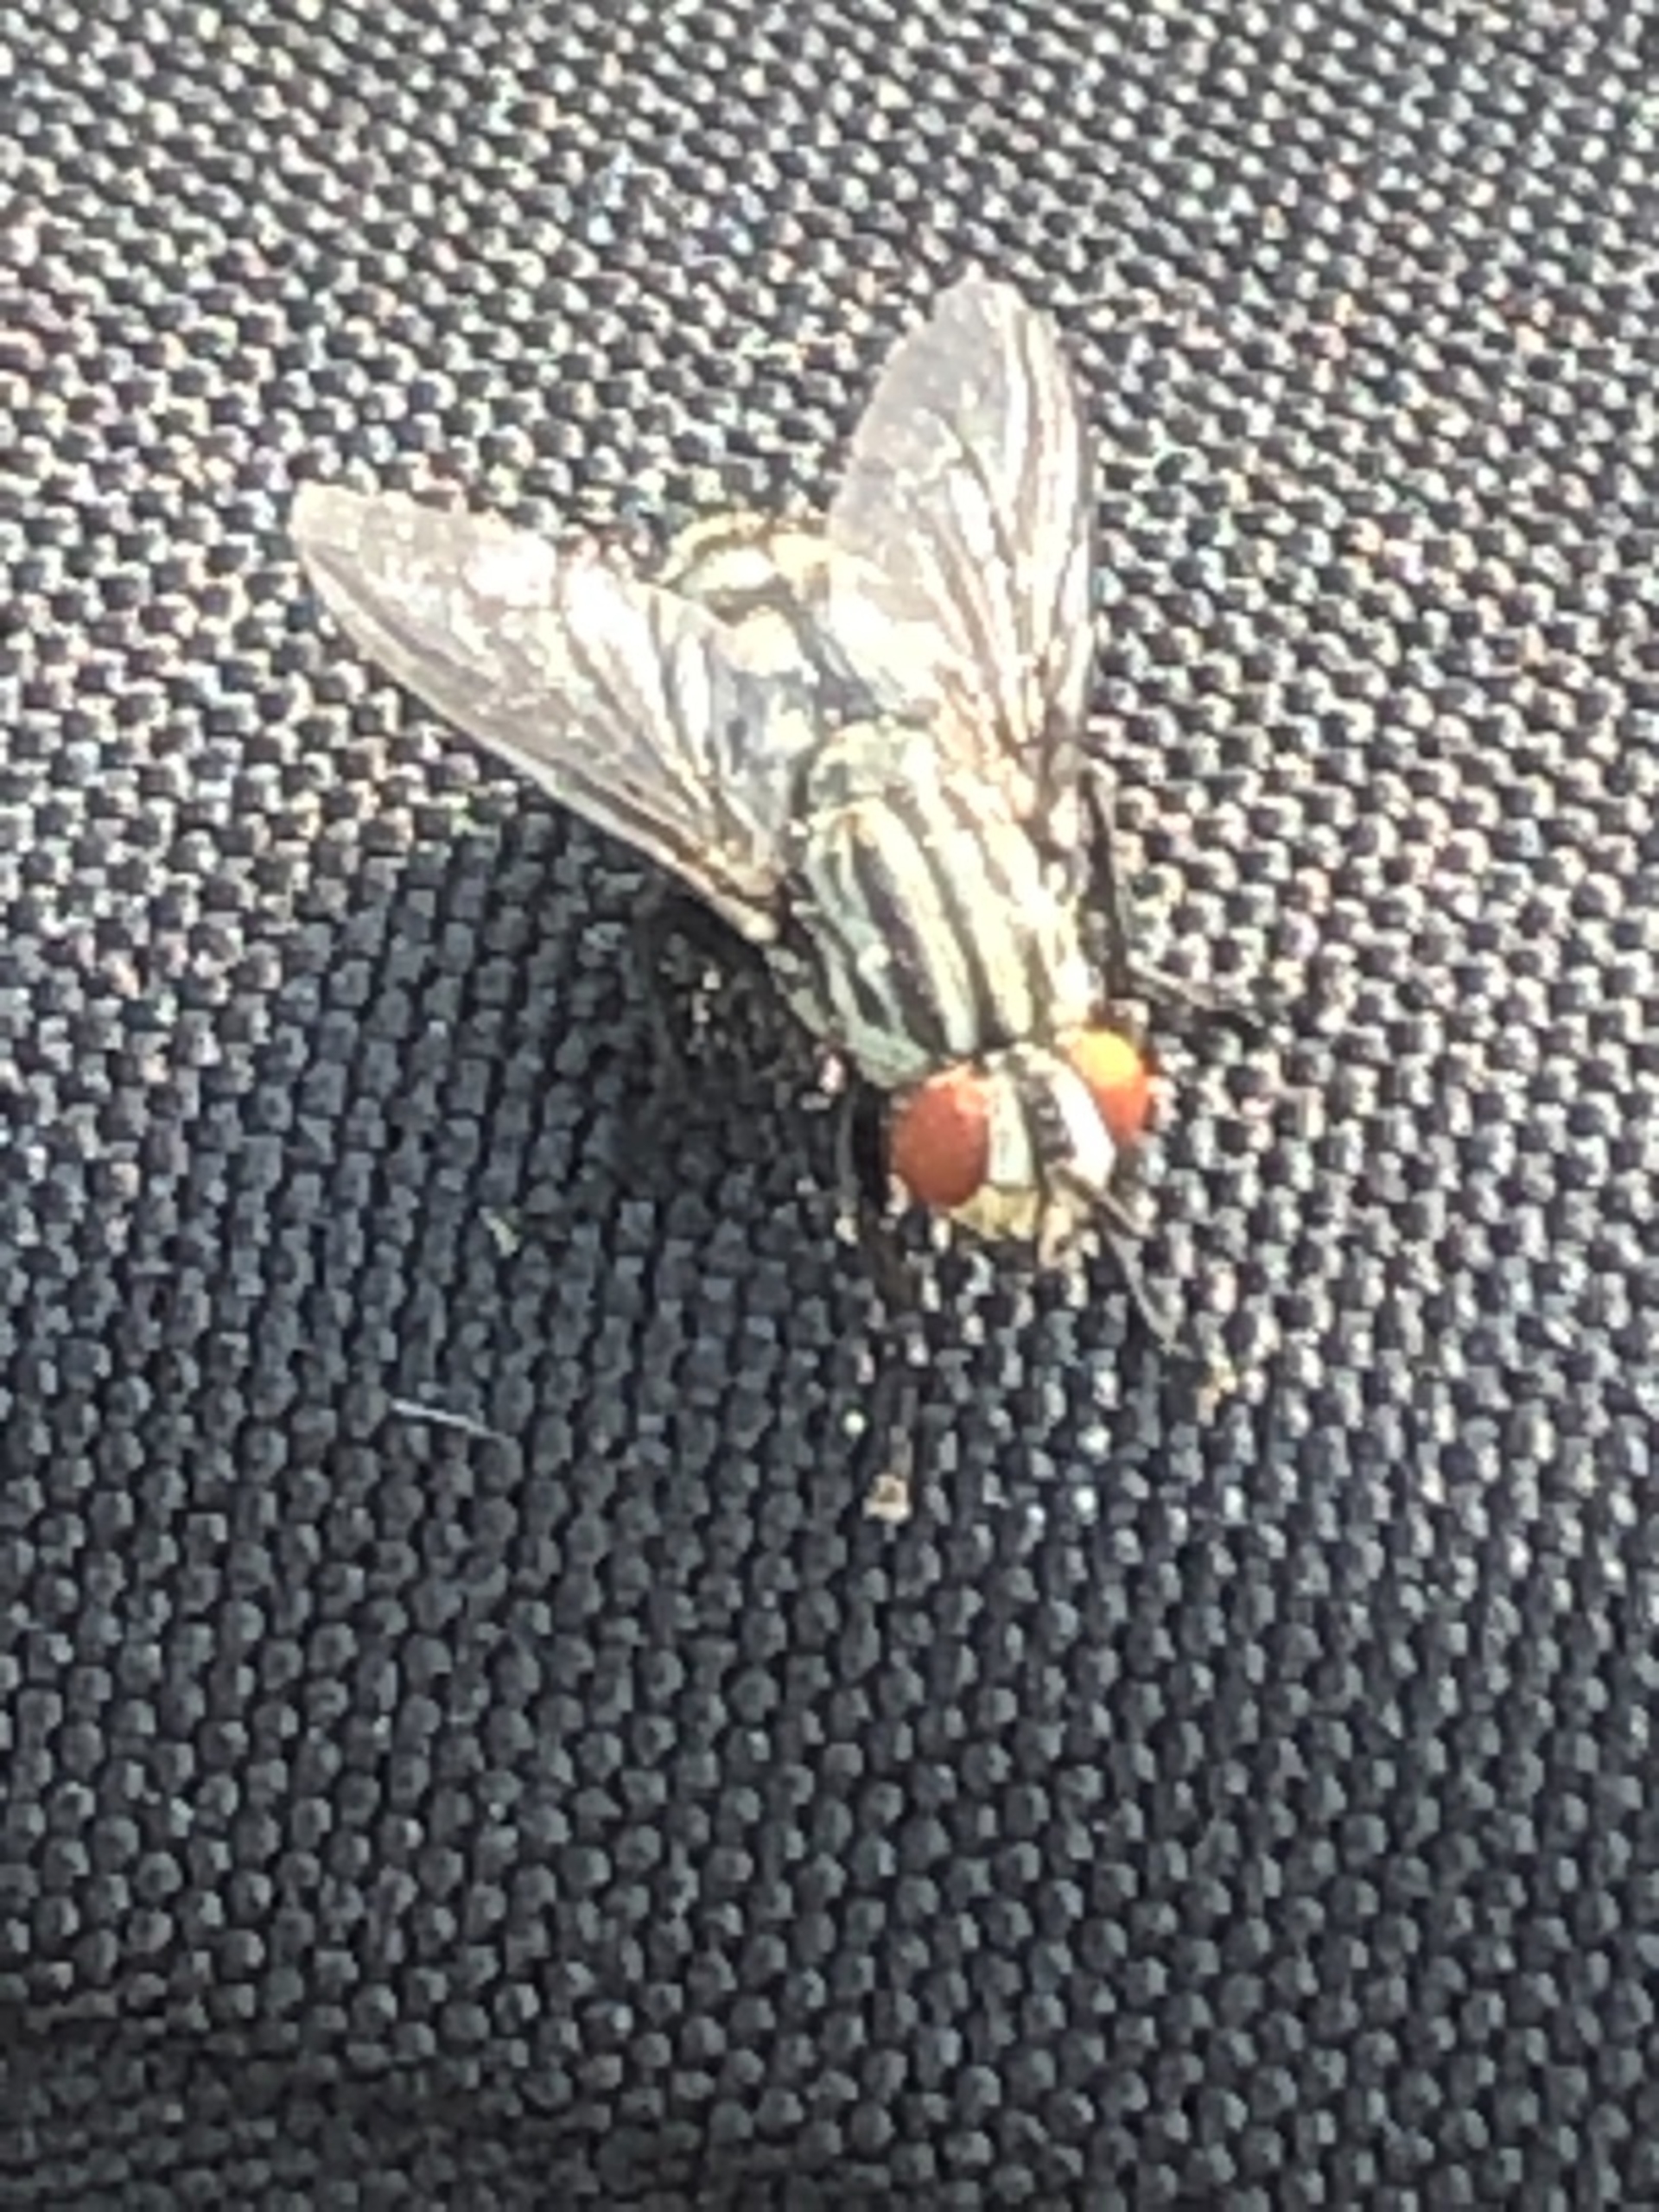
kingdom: Animalia
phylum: Arthropoda
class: Insecta
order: Diptera
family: Sarcophagidae
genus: Sarcophaga
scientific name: Sarcophaga
